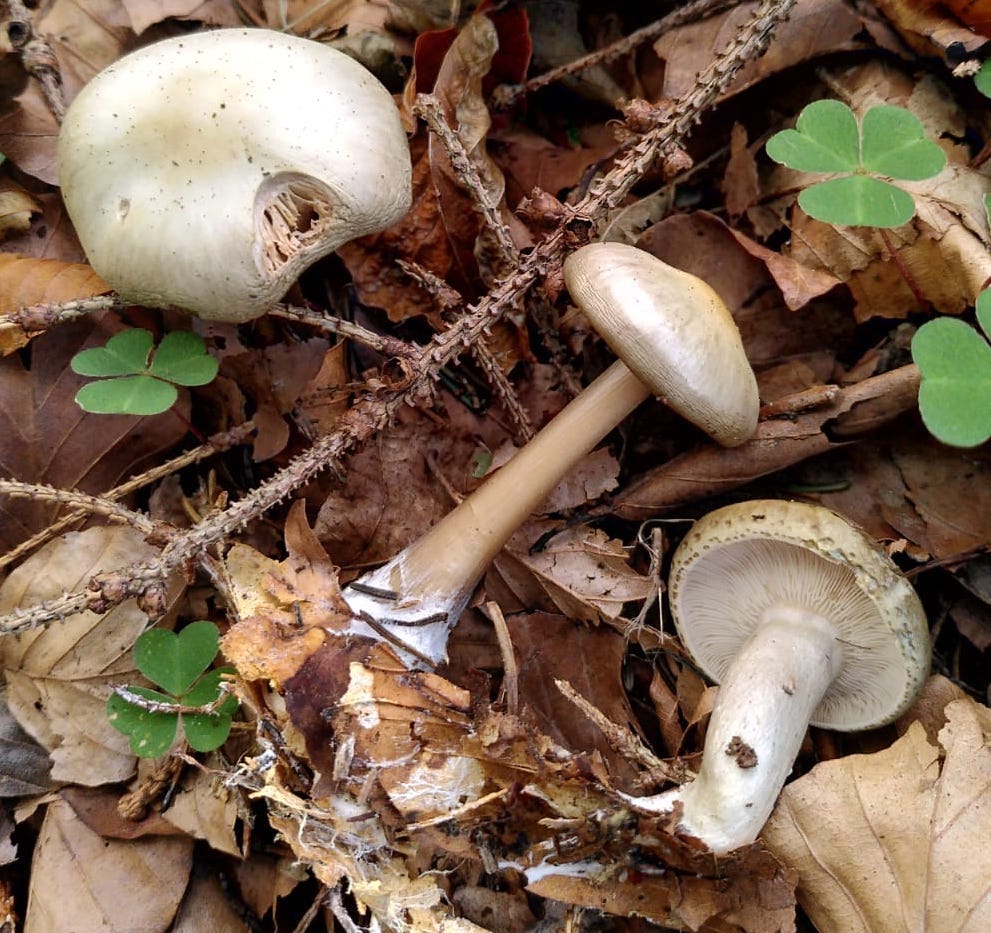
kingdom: Fungi
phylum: Basidiomycota
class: Agaricomycetes
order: Agaricales
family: Omphalotaceae
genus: Rhodocollybia
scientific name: Rhodocollybia asema
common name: horngrå fladhat
